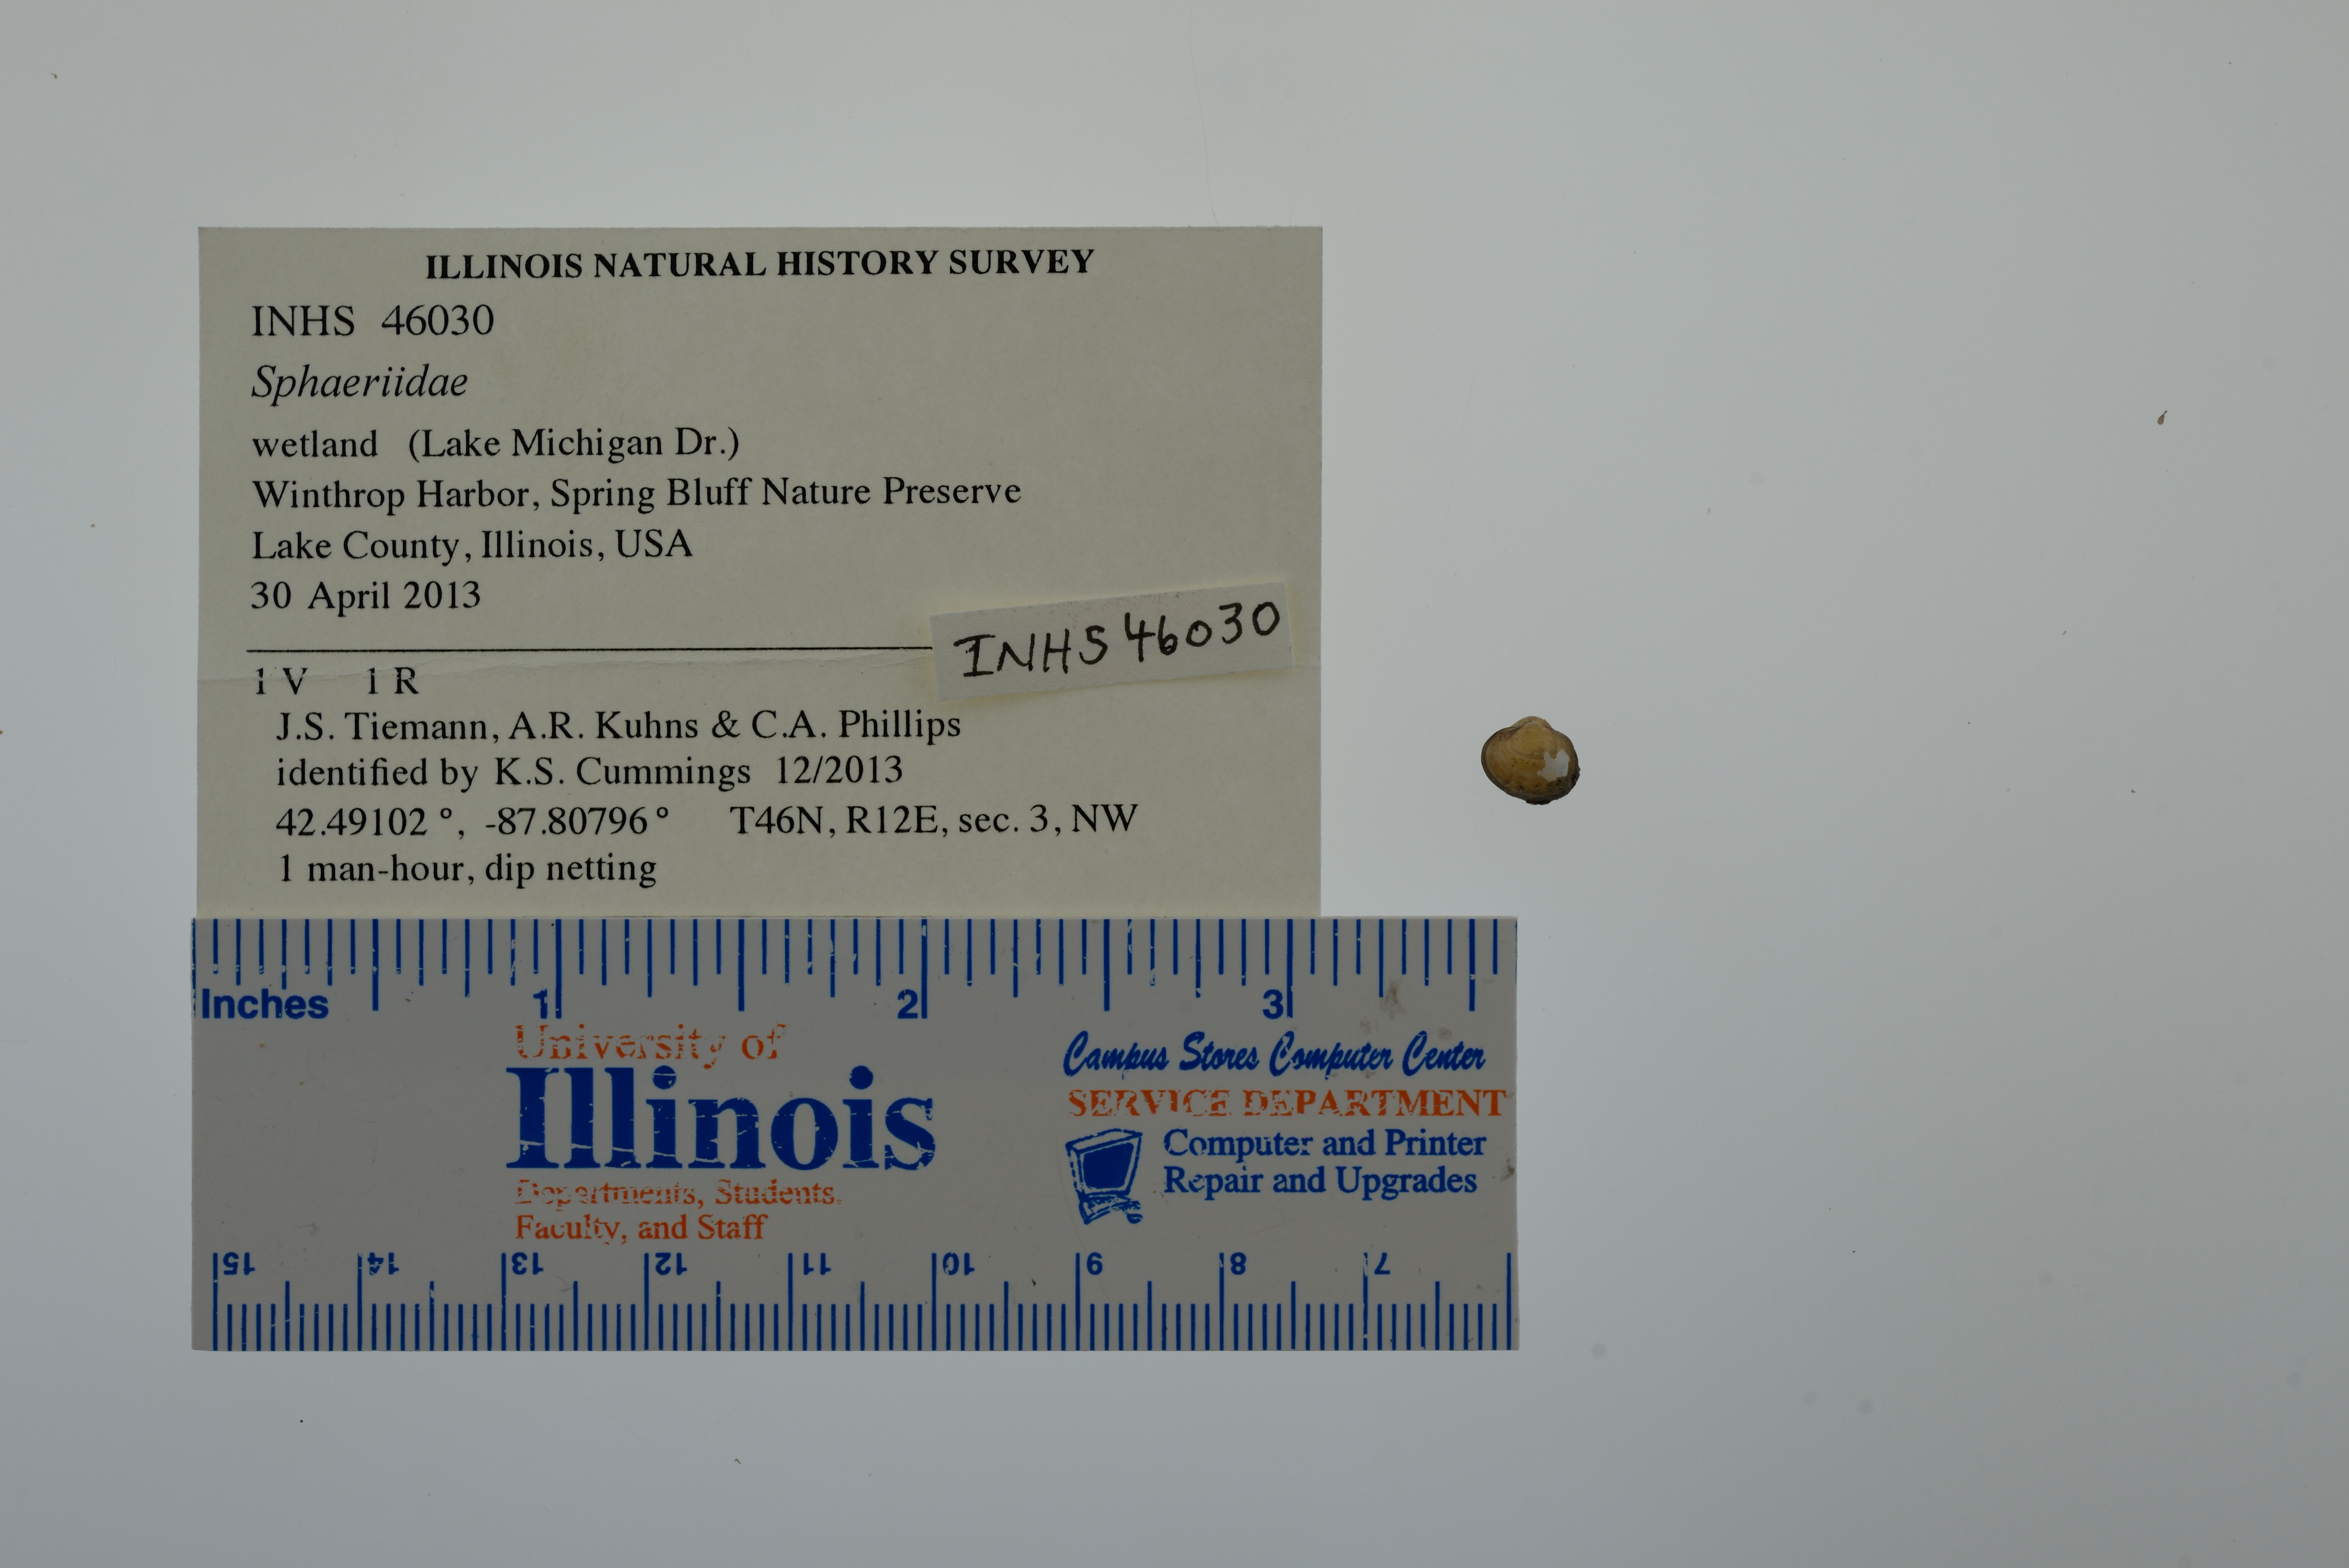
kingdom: Animalia
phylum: Mollusca
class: Bivalvia
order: Sphaeriida
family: Sphaeriidae
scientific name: Sphaeriidae
